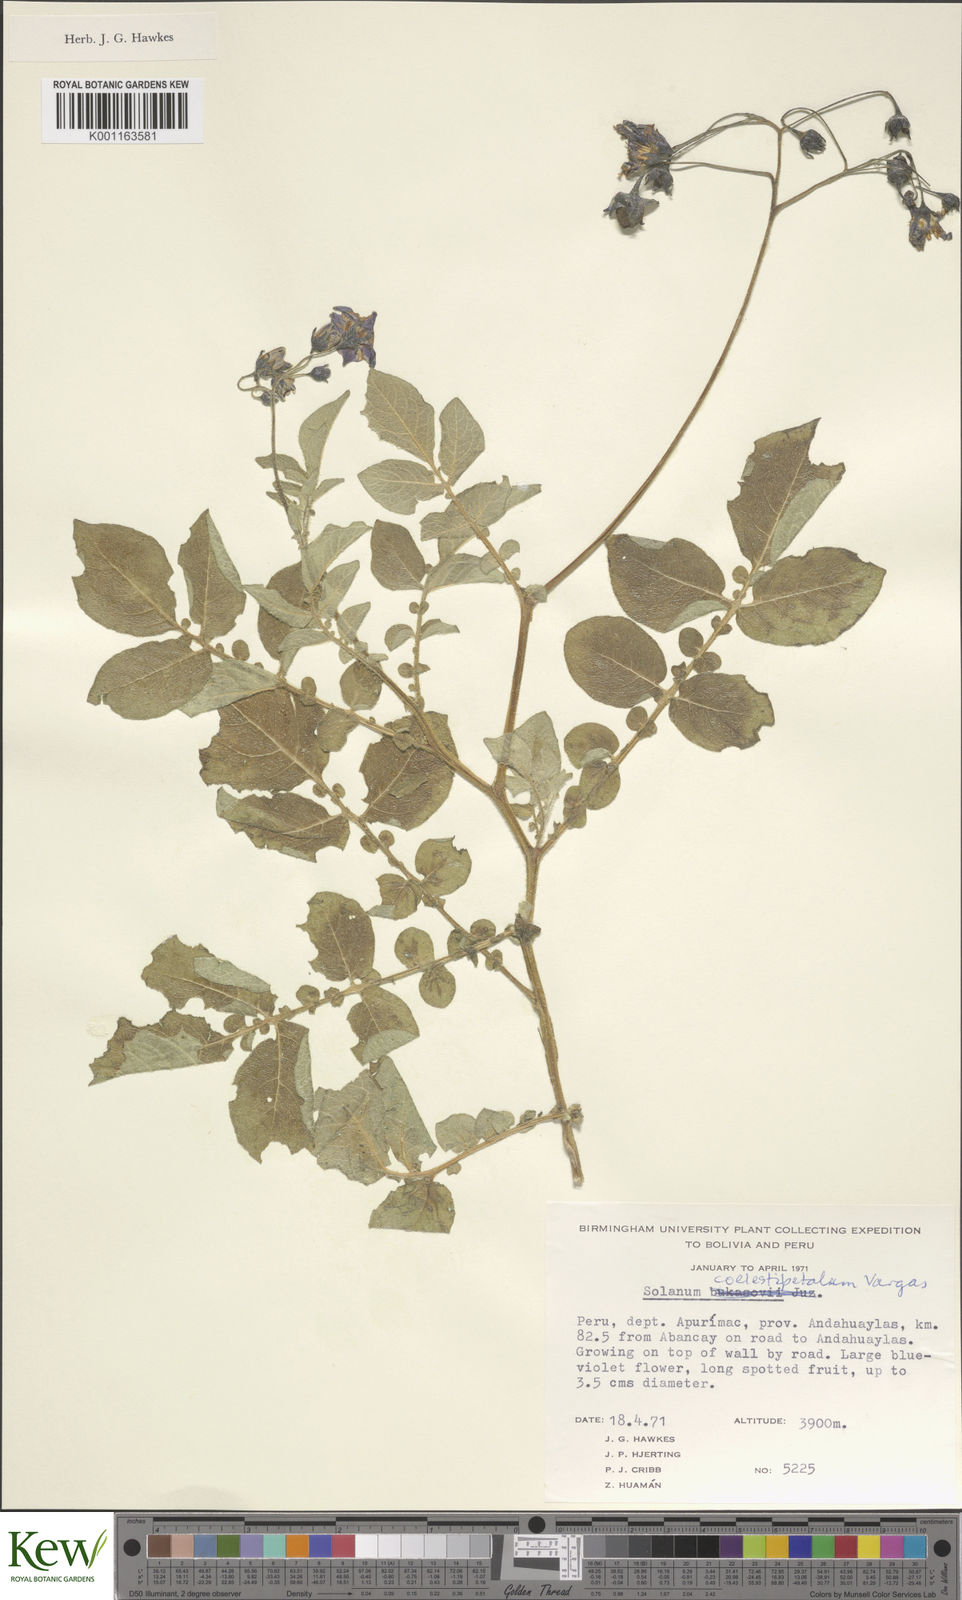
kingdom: Plantae
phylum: Tracheophyta
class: Magnoliopsida
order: Solanales
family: Solanaceae
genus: Solanum
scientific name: Solanum brevicaule
